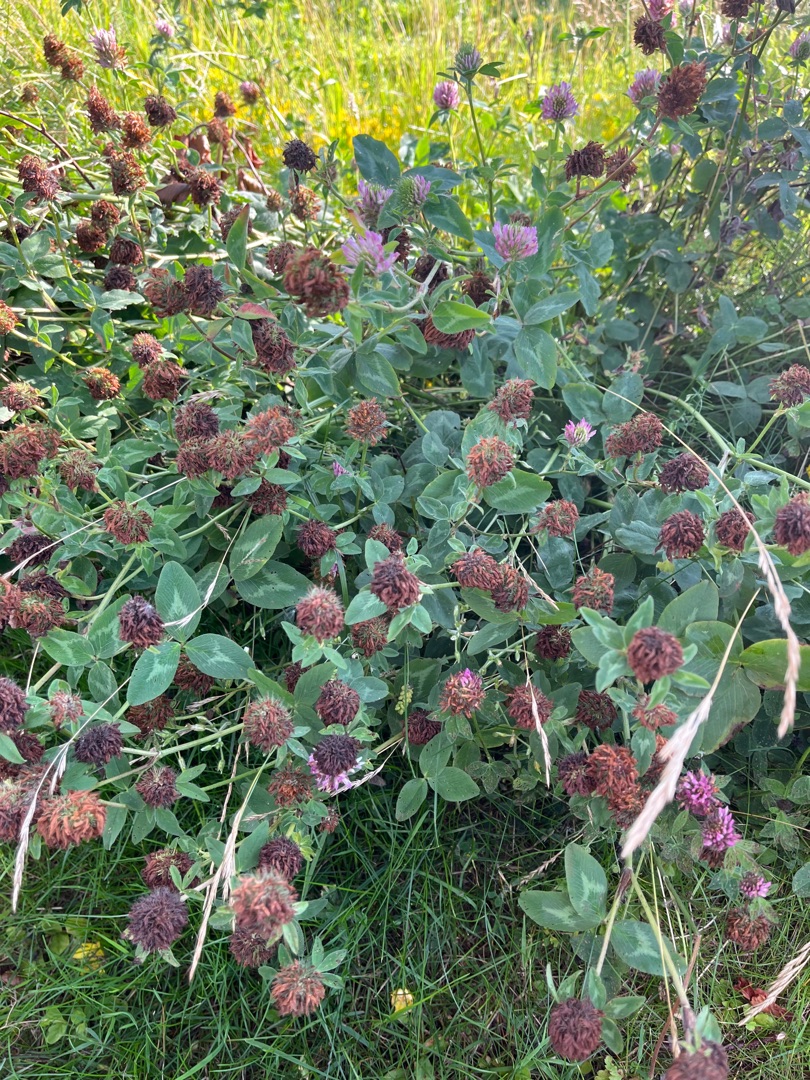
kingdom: Plantae
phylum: Tracheophyta
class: Magnoliopsida
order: Fabales
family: Fabaceae
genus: Trifolium
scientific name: Trifolium pratense
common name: Rød-kløver
